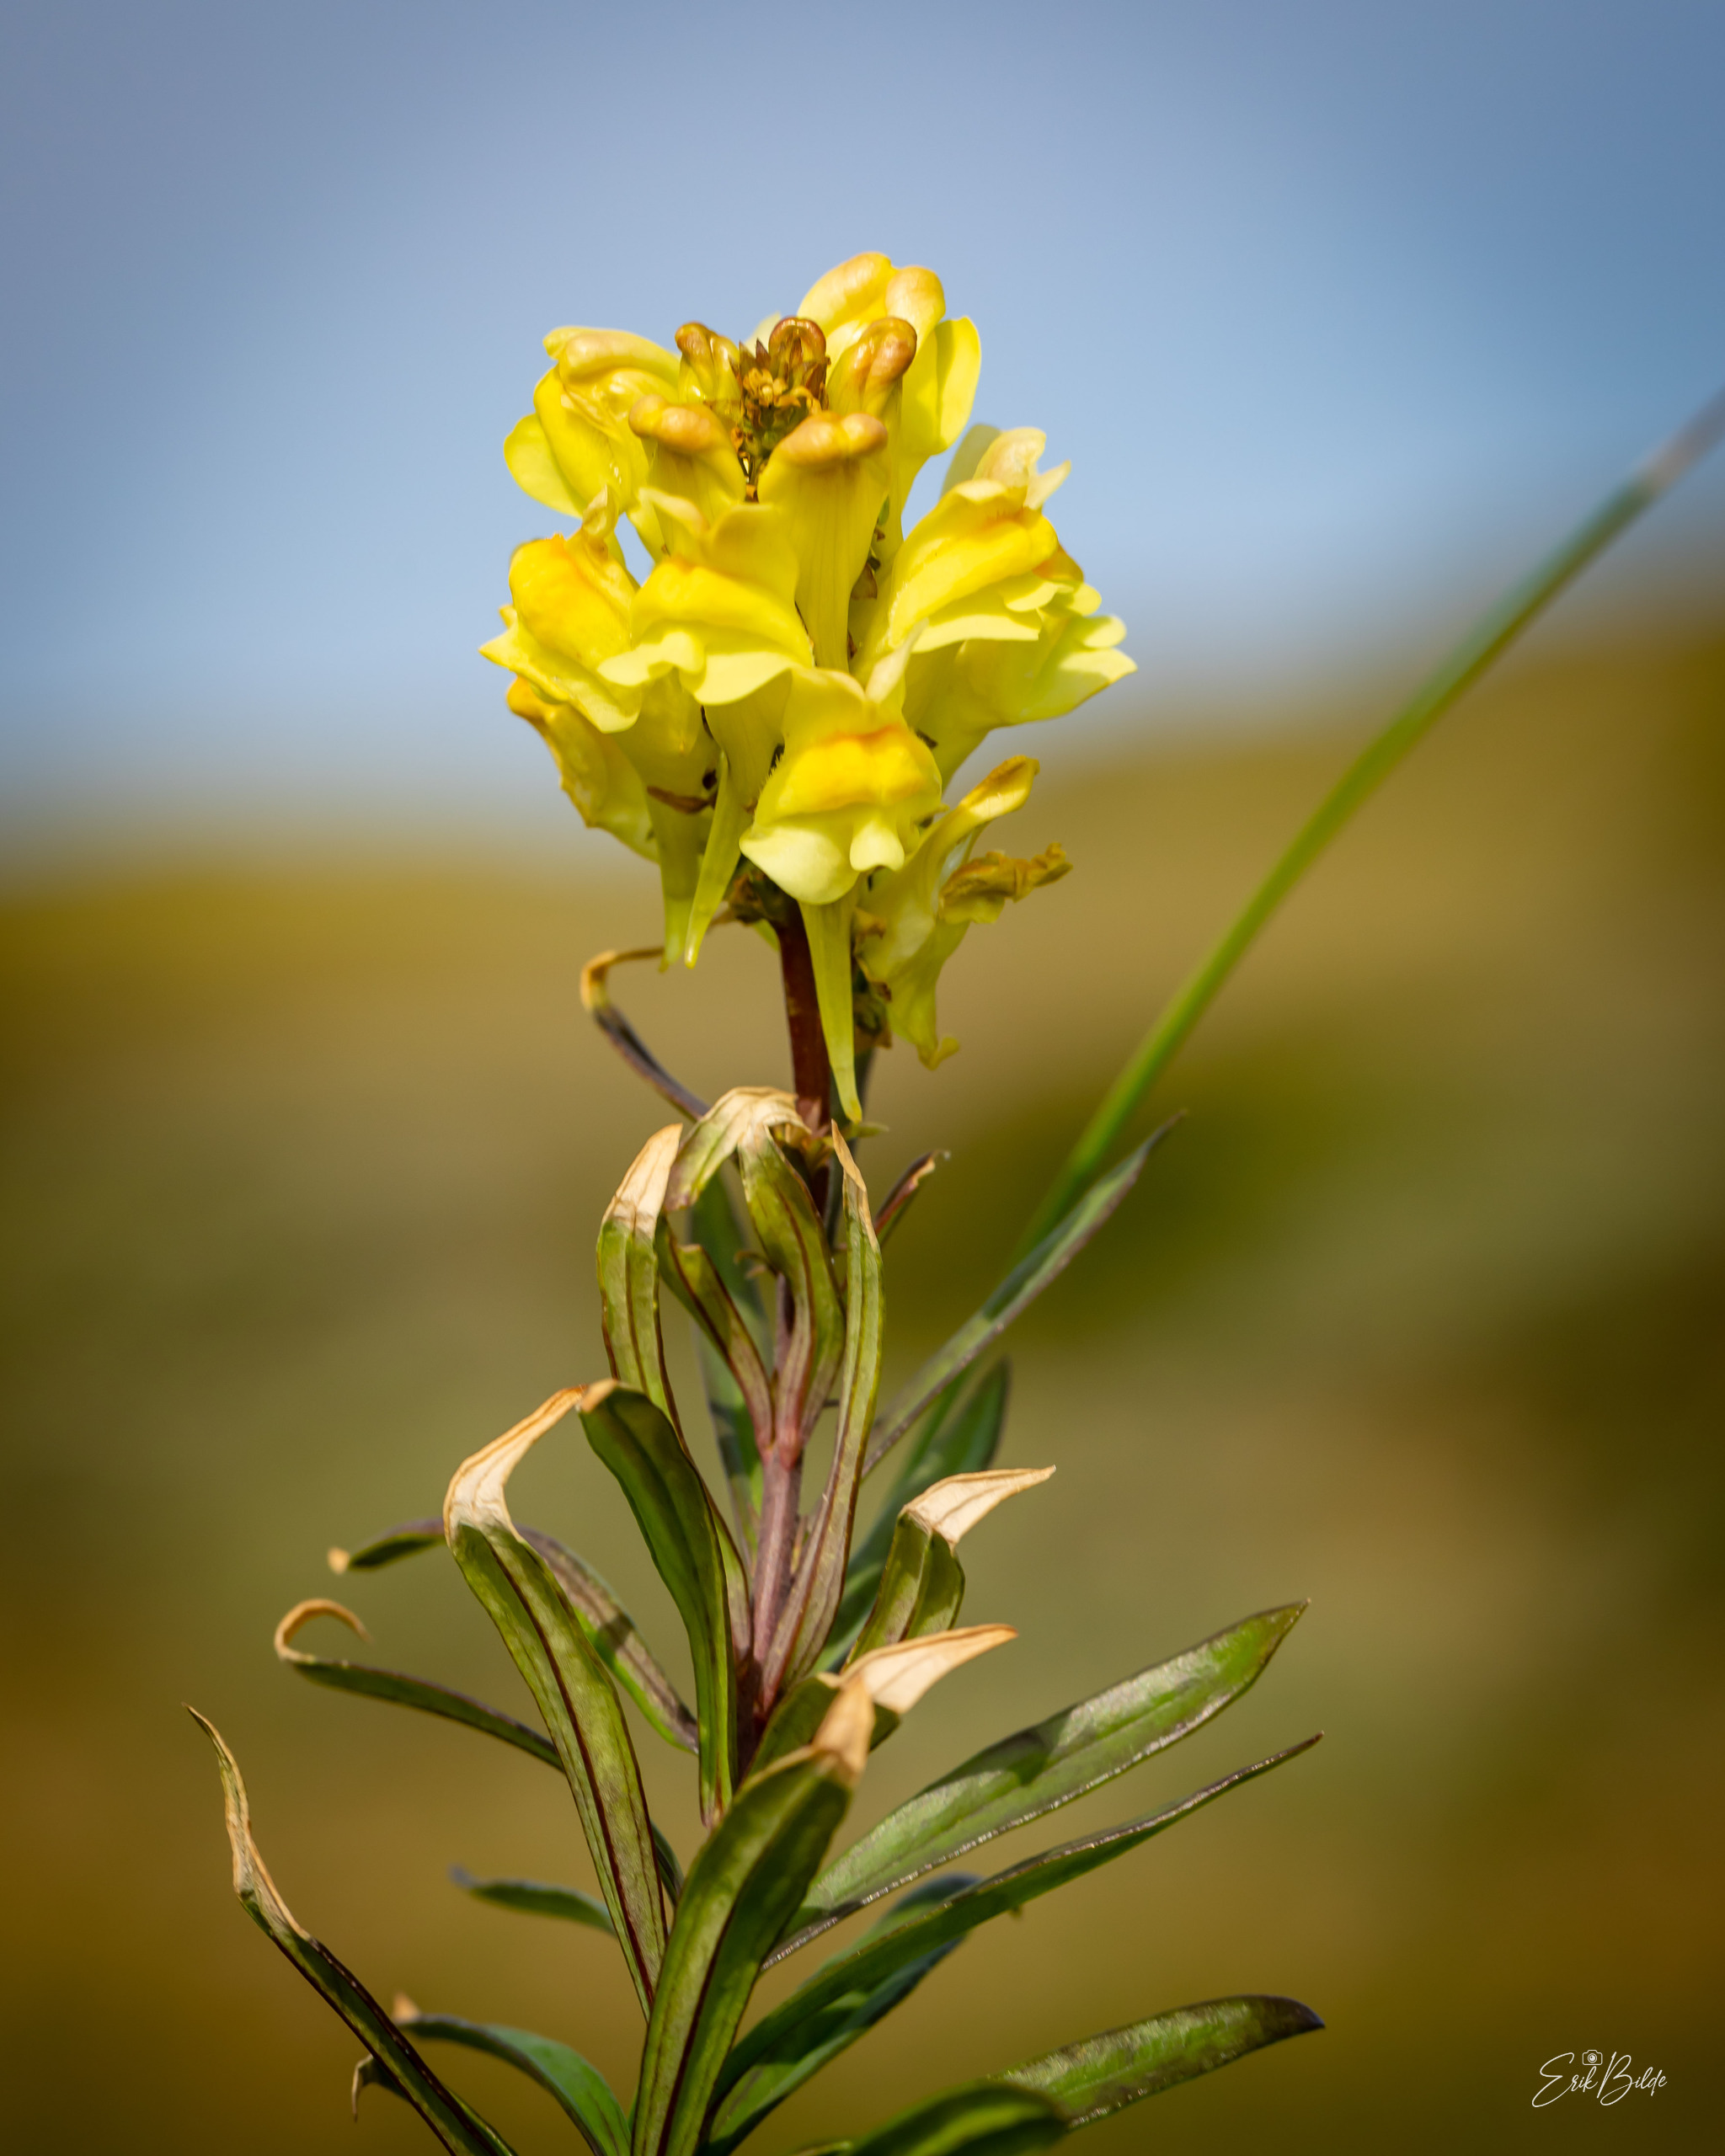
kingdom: Plantae
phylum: Tracheophyta
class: Magnoliopsida
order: Lamiales
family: Plantaginaceae
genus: Linaria
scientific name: Linaria vulgaris
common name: Almindelig torskemund
